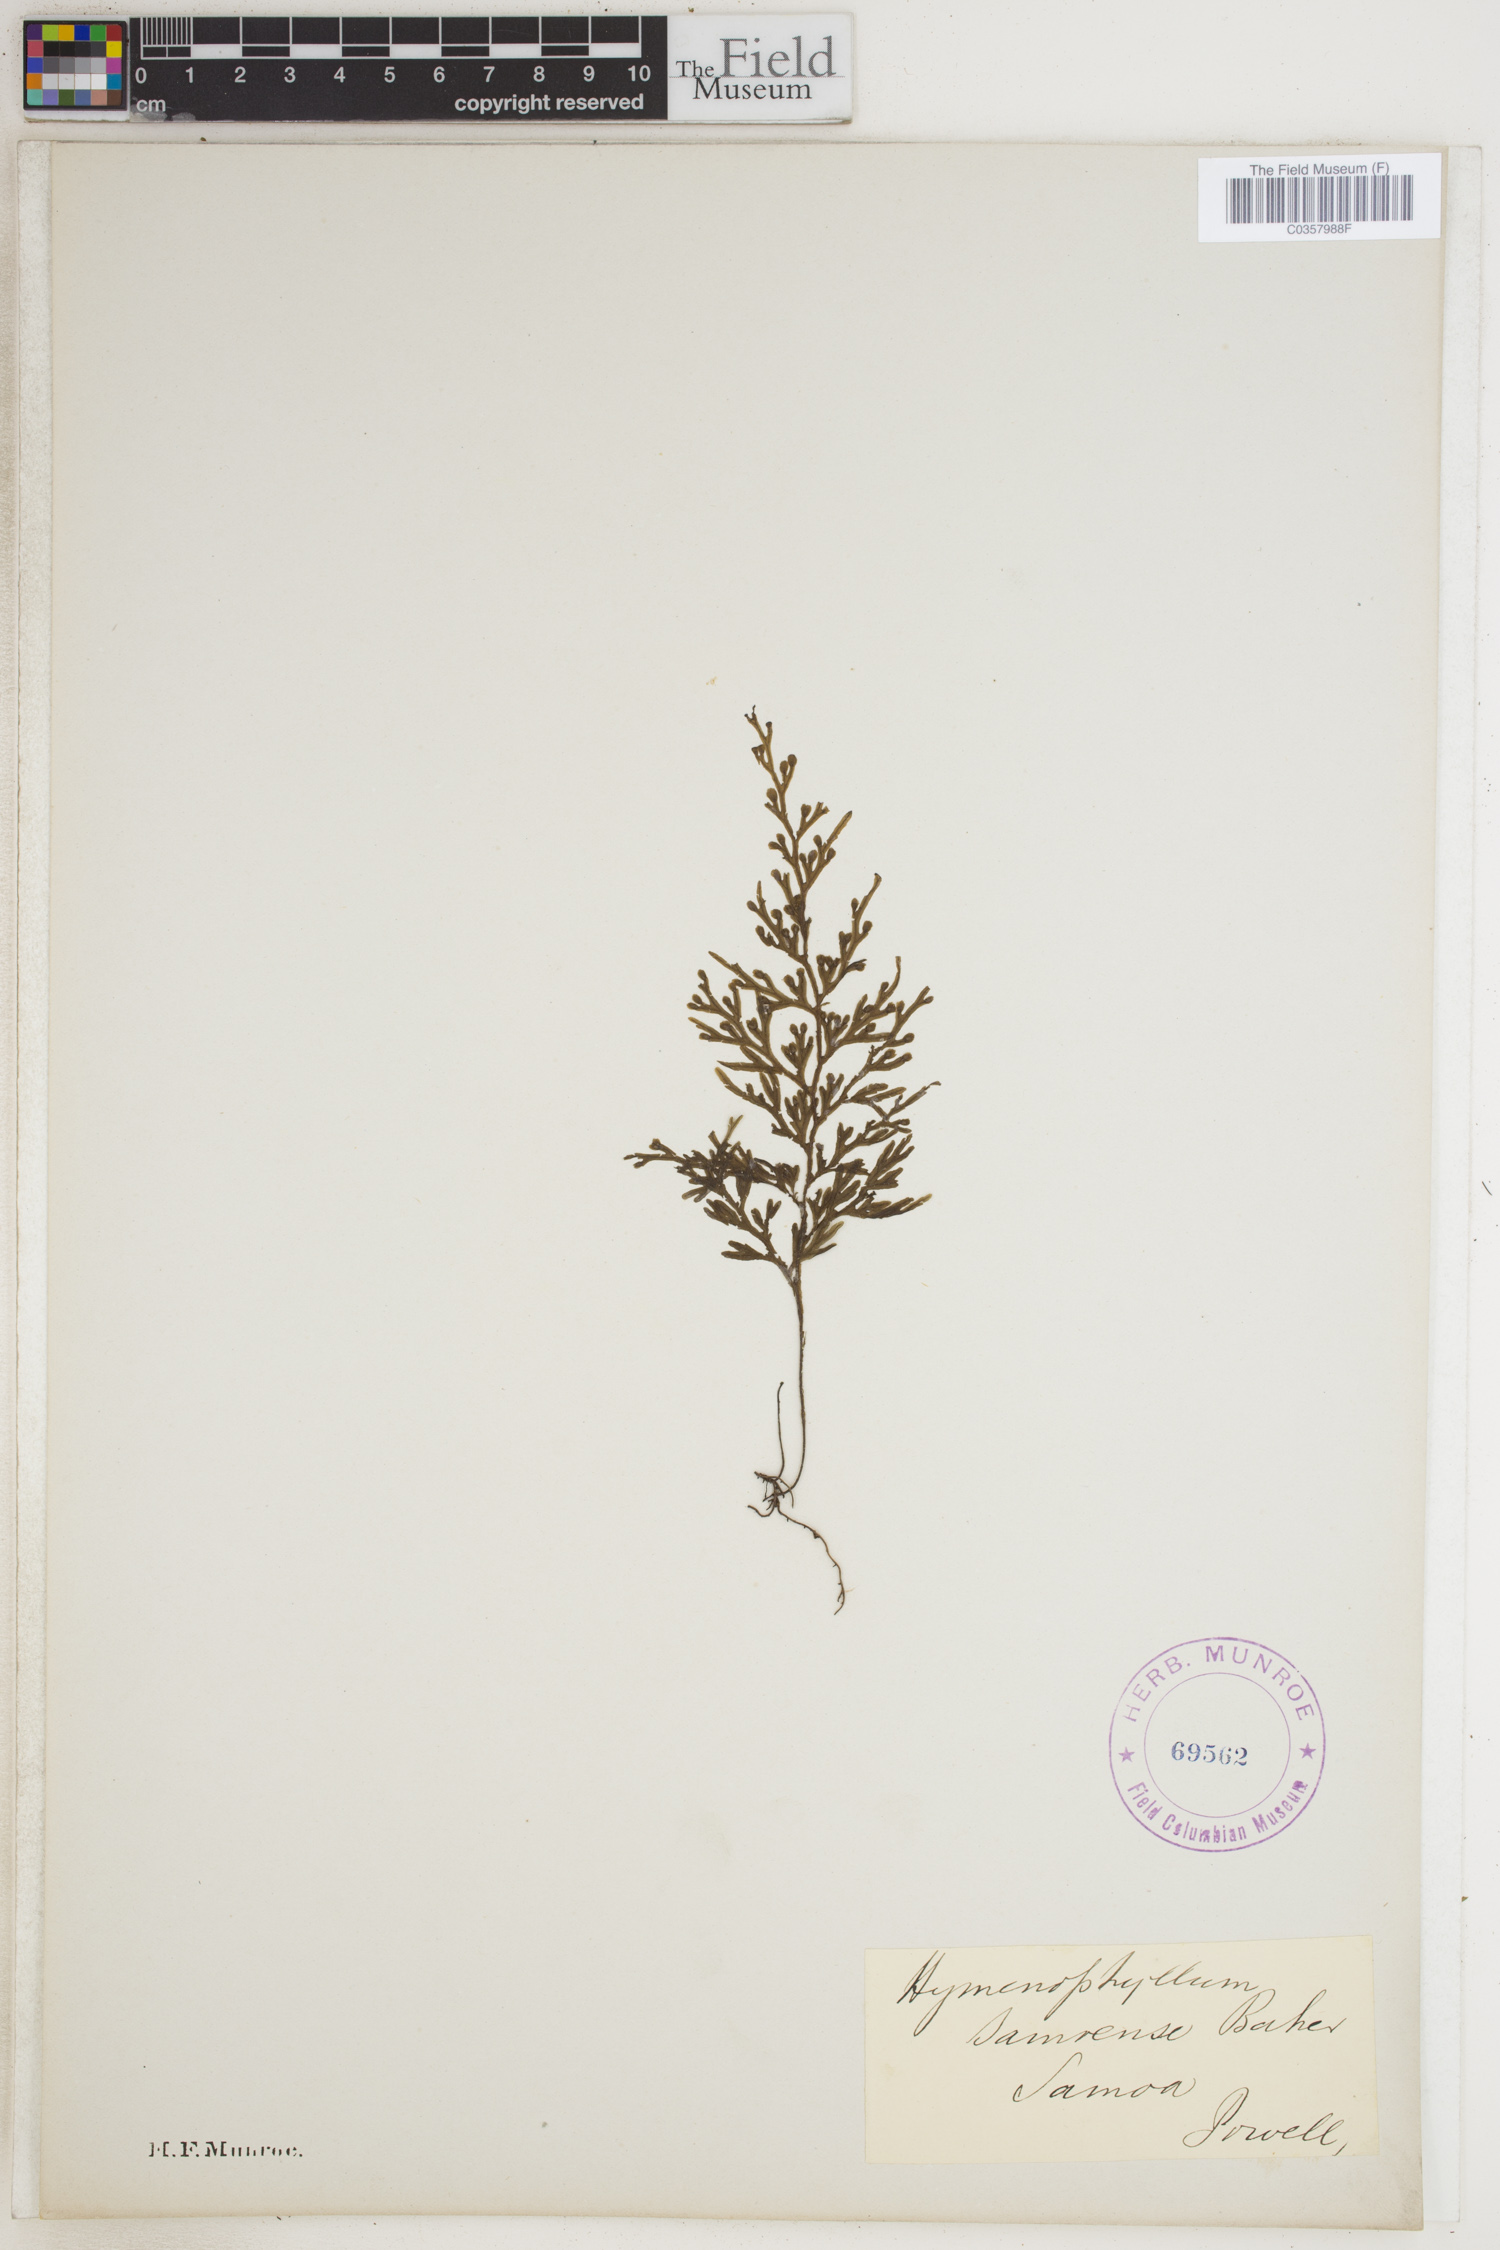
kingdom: Plantae
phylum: Tracheophyta
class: Polypodiopsida
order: Hymenophyllales
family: Hymenophyllaceae
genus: Hymenophyllum
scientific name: Hymenophyllum
